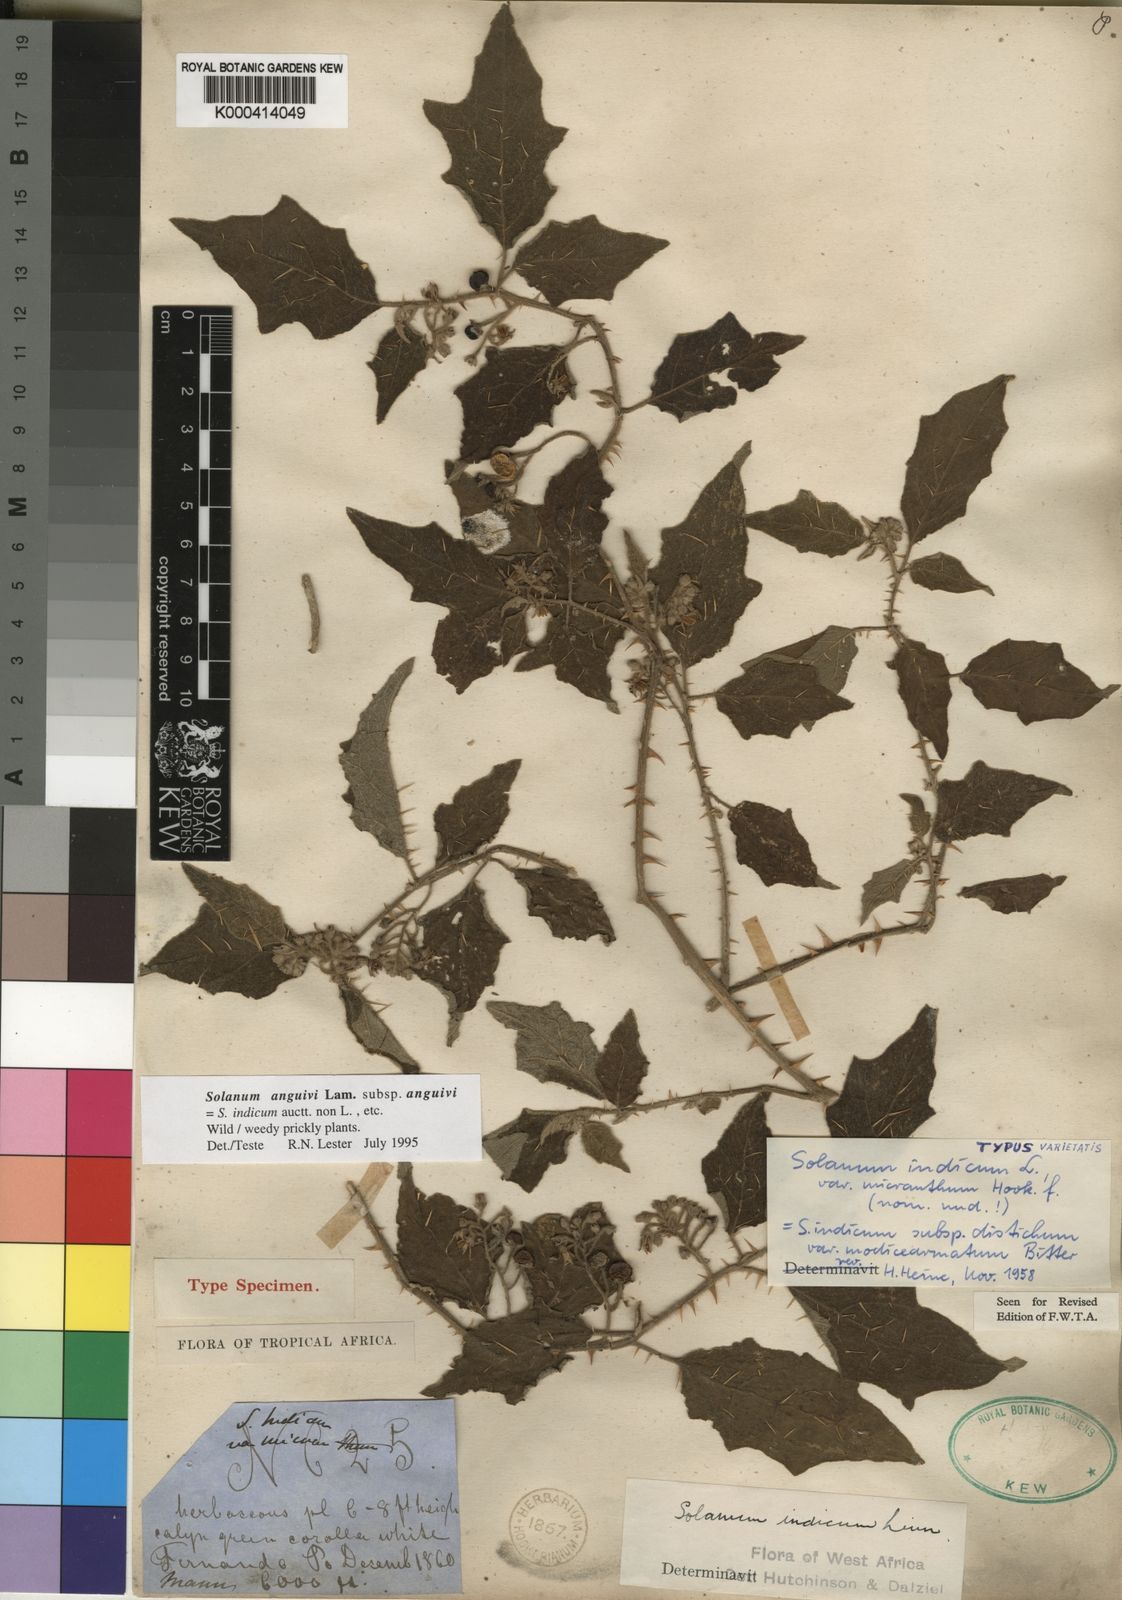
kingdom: Plantae
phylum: Tracheophyta
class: Magnoliopsida
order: Solanales
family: Solanaceae
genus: Solanum
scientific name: Solanum violaceum
